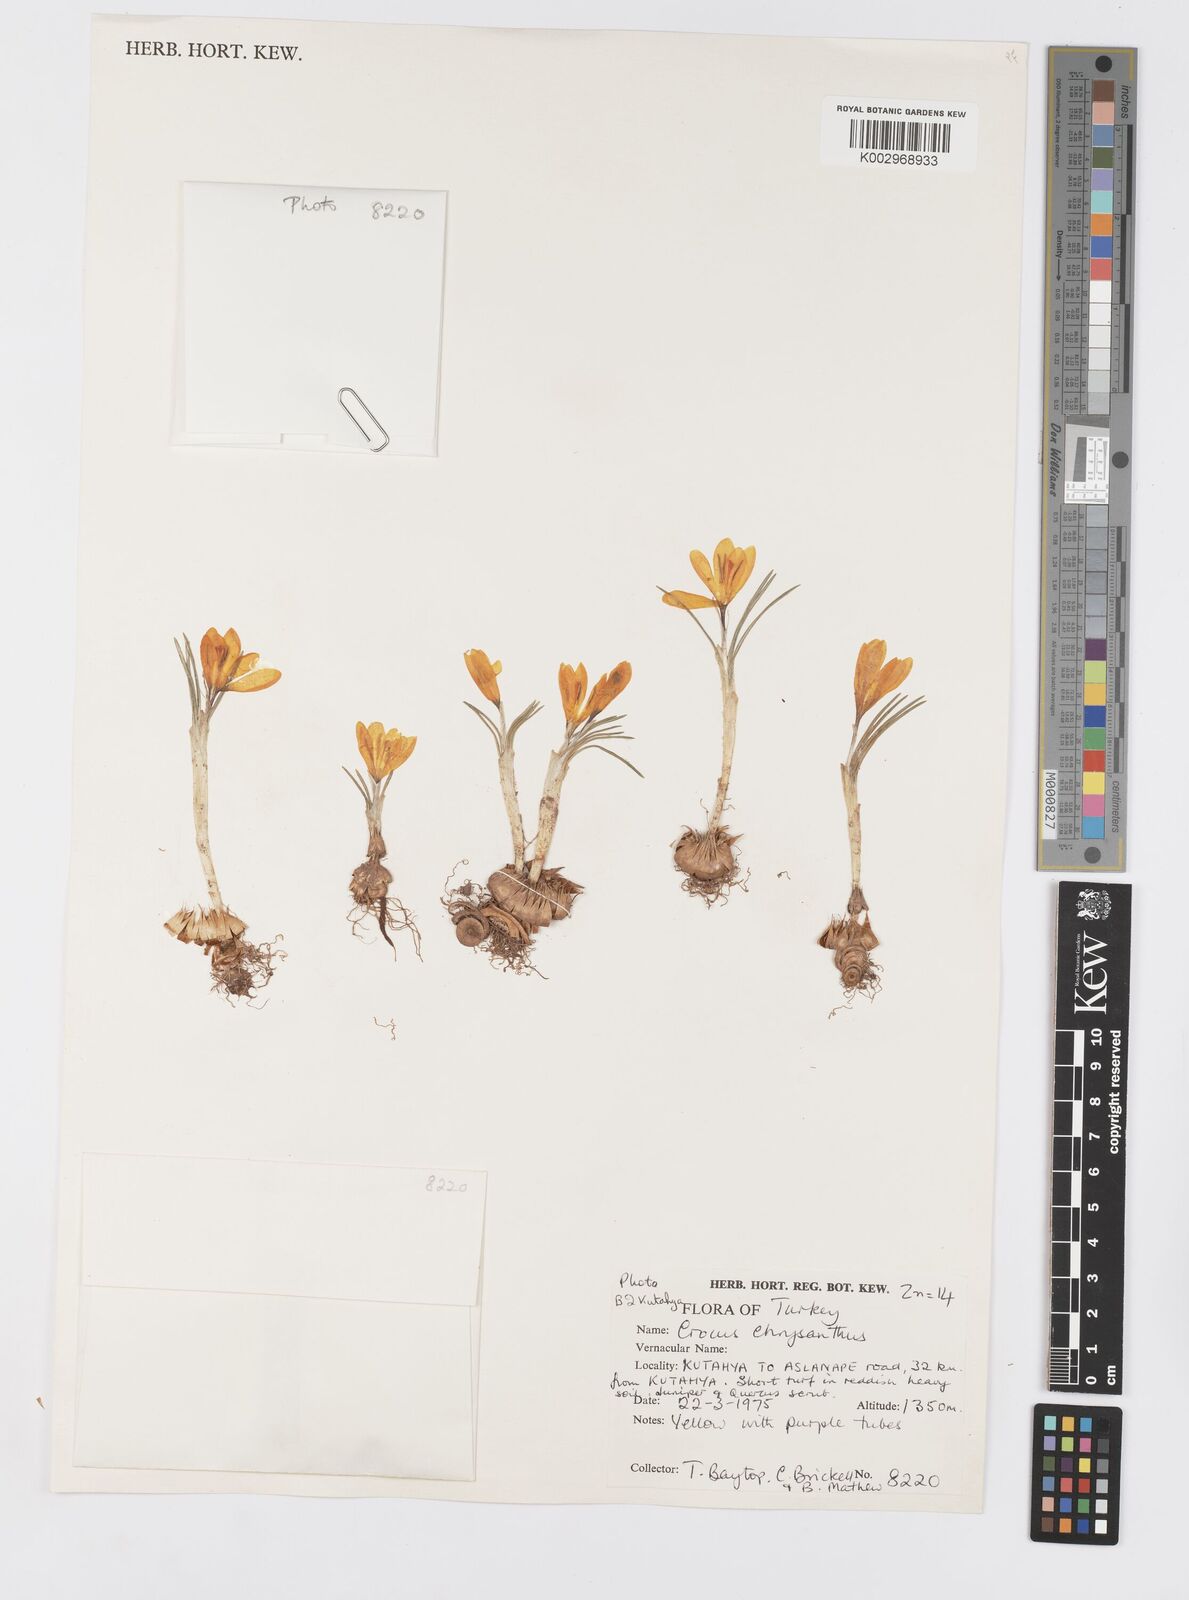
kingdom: Plantae
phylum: Tracheophyta
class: Liliopsida
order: Asparagales
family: Iridaceae
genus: Crocus
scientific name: Crocus chrysanthus
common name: Golden crocus
